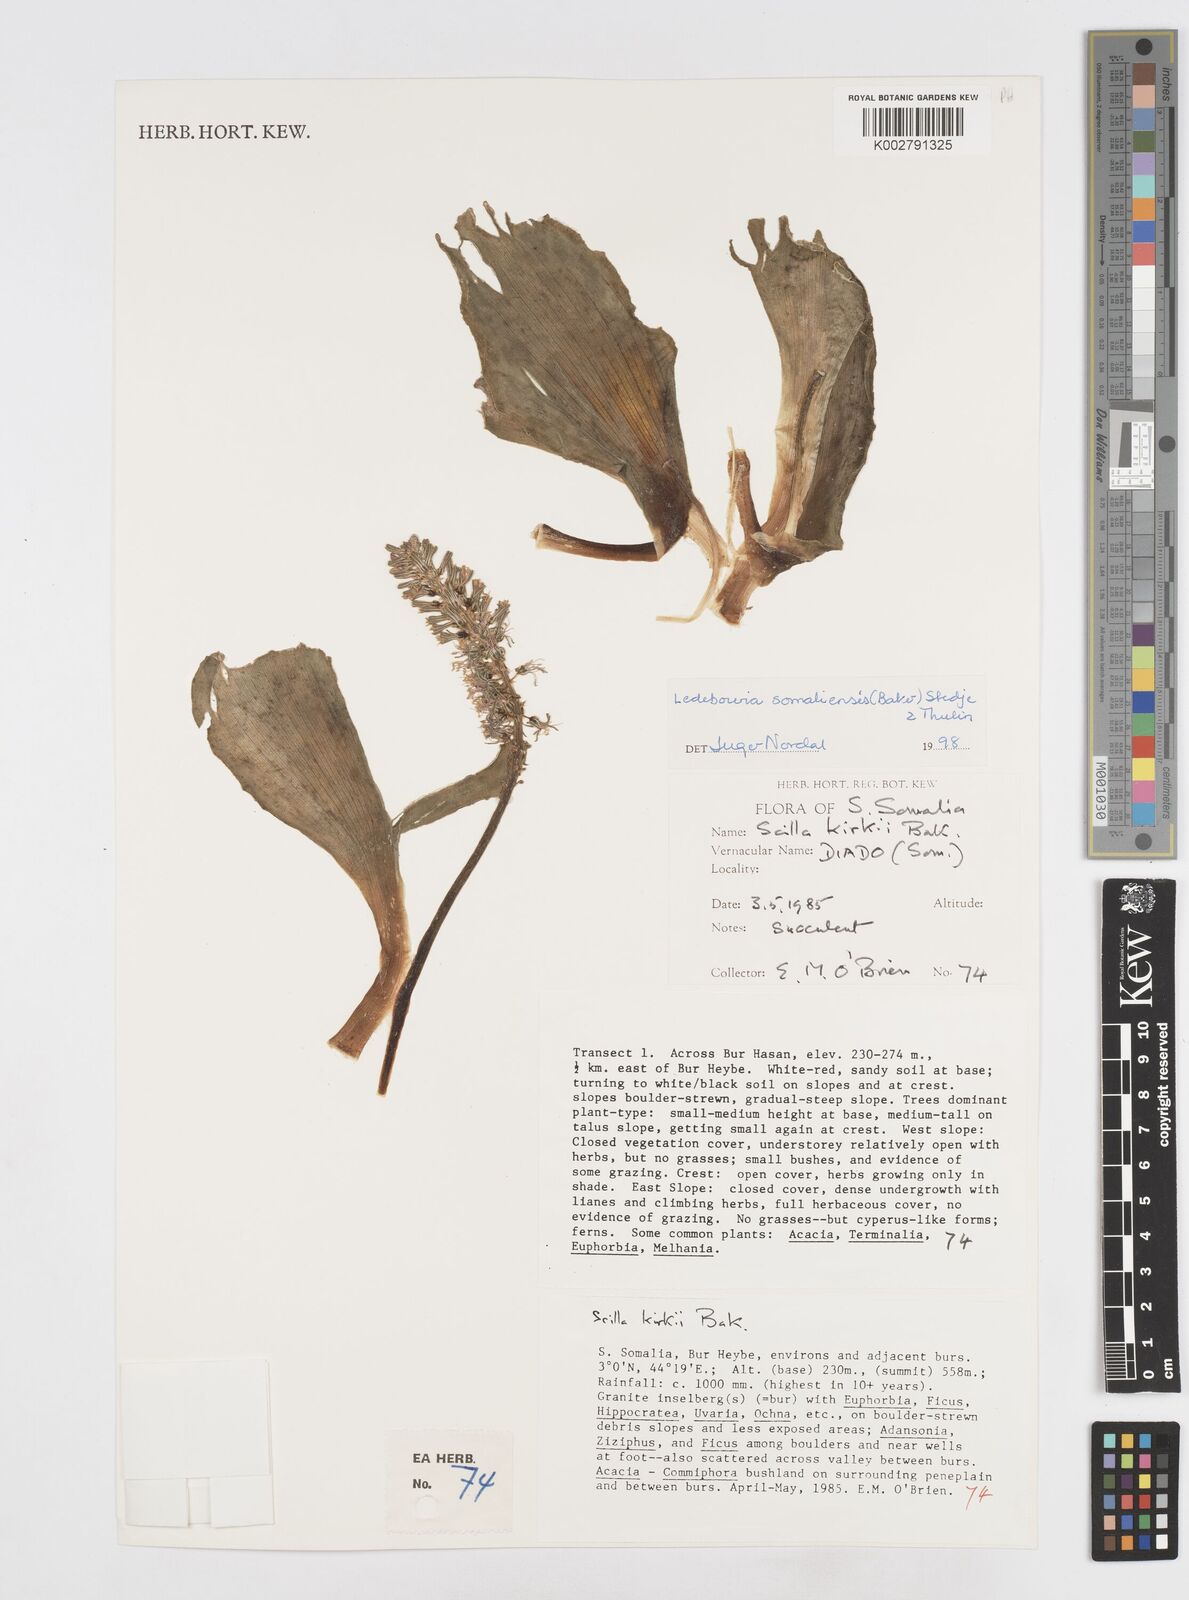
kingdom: Plantae
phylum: Tracheophyta
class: Liliopsida
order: Asparagales
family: Asparagaceae
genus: Scilla
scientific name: Scilla
